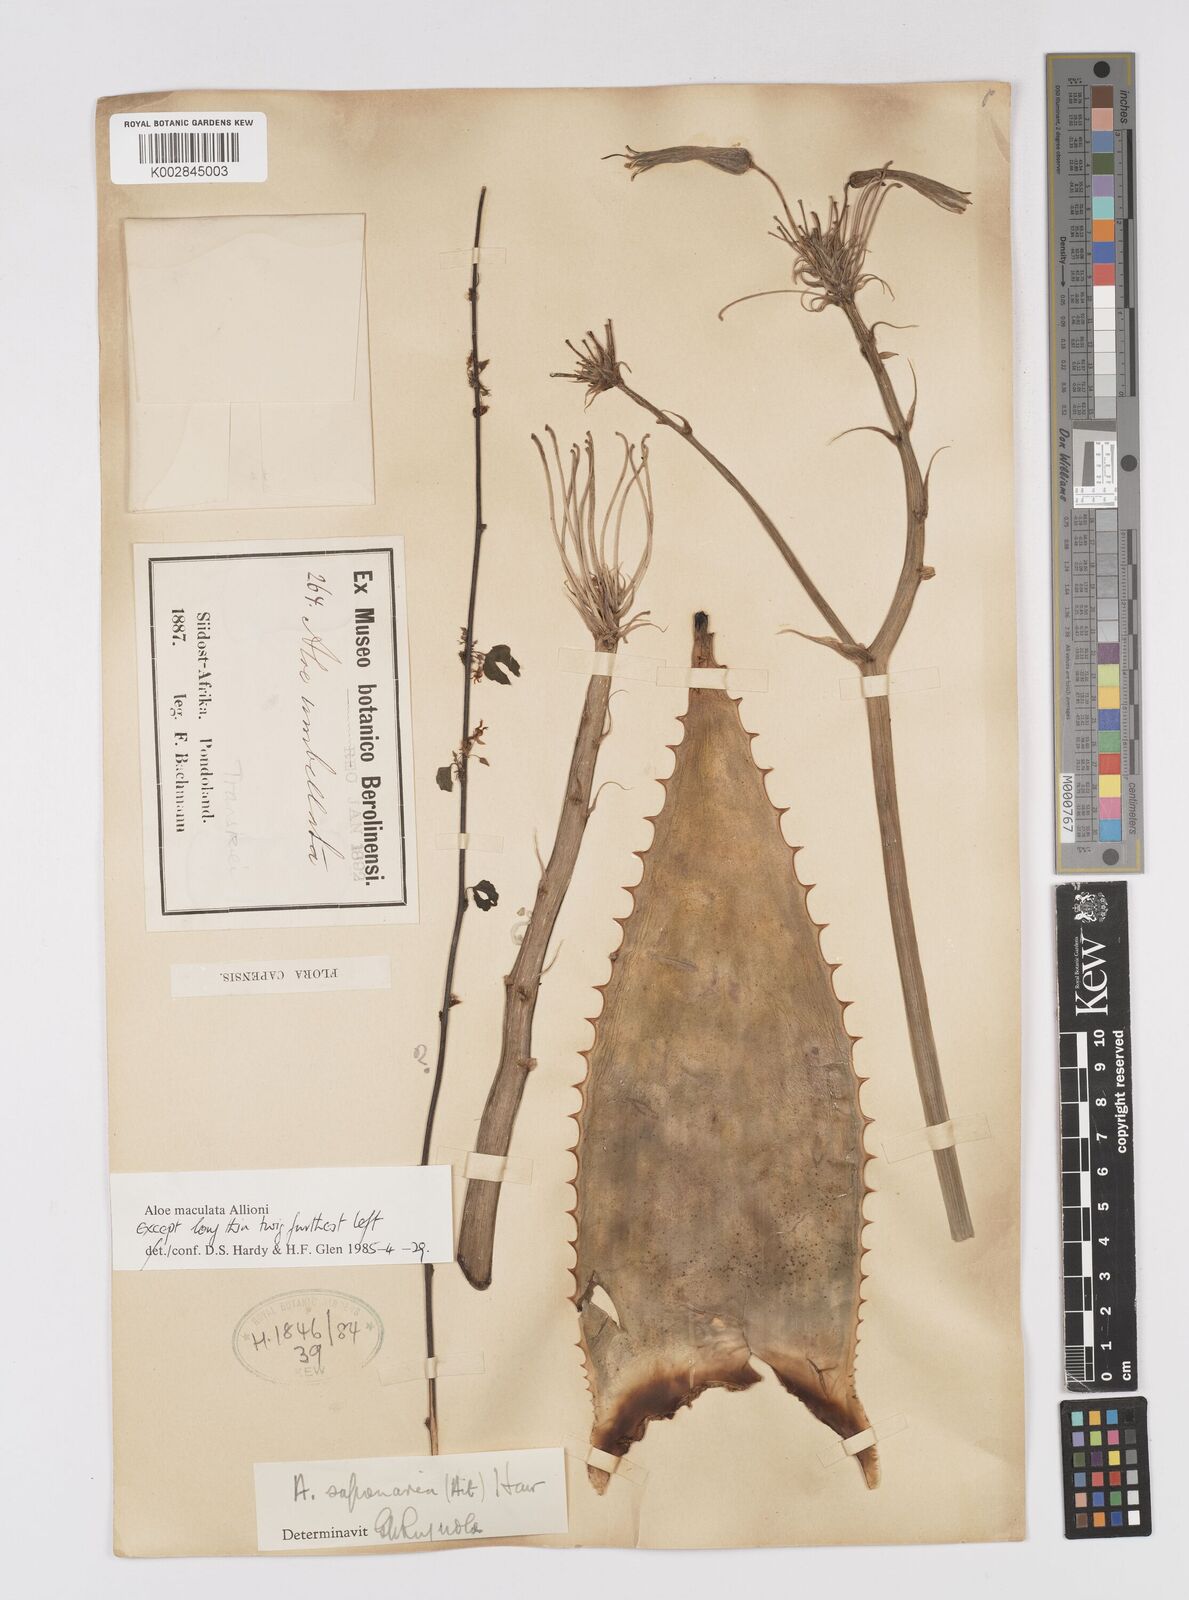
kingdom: Plantae
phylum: Tracheophyta
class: Liliopsida
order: Asparagales
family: Asphodelaceae
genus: Aloe
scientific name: Aloe microstigma
